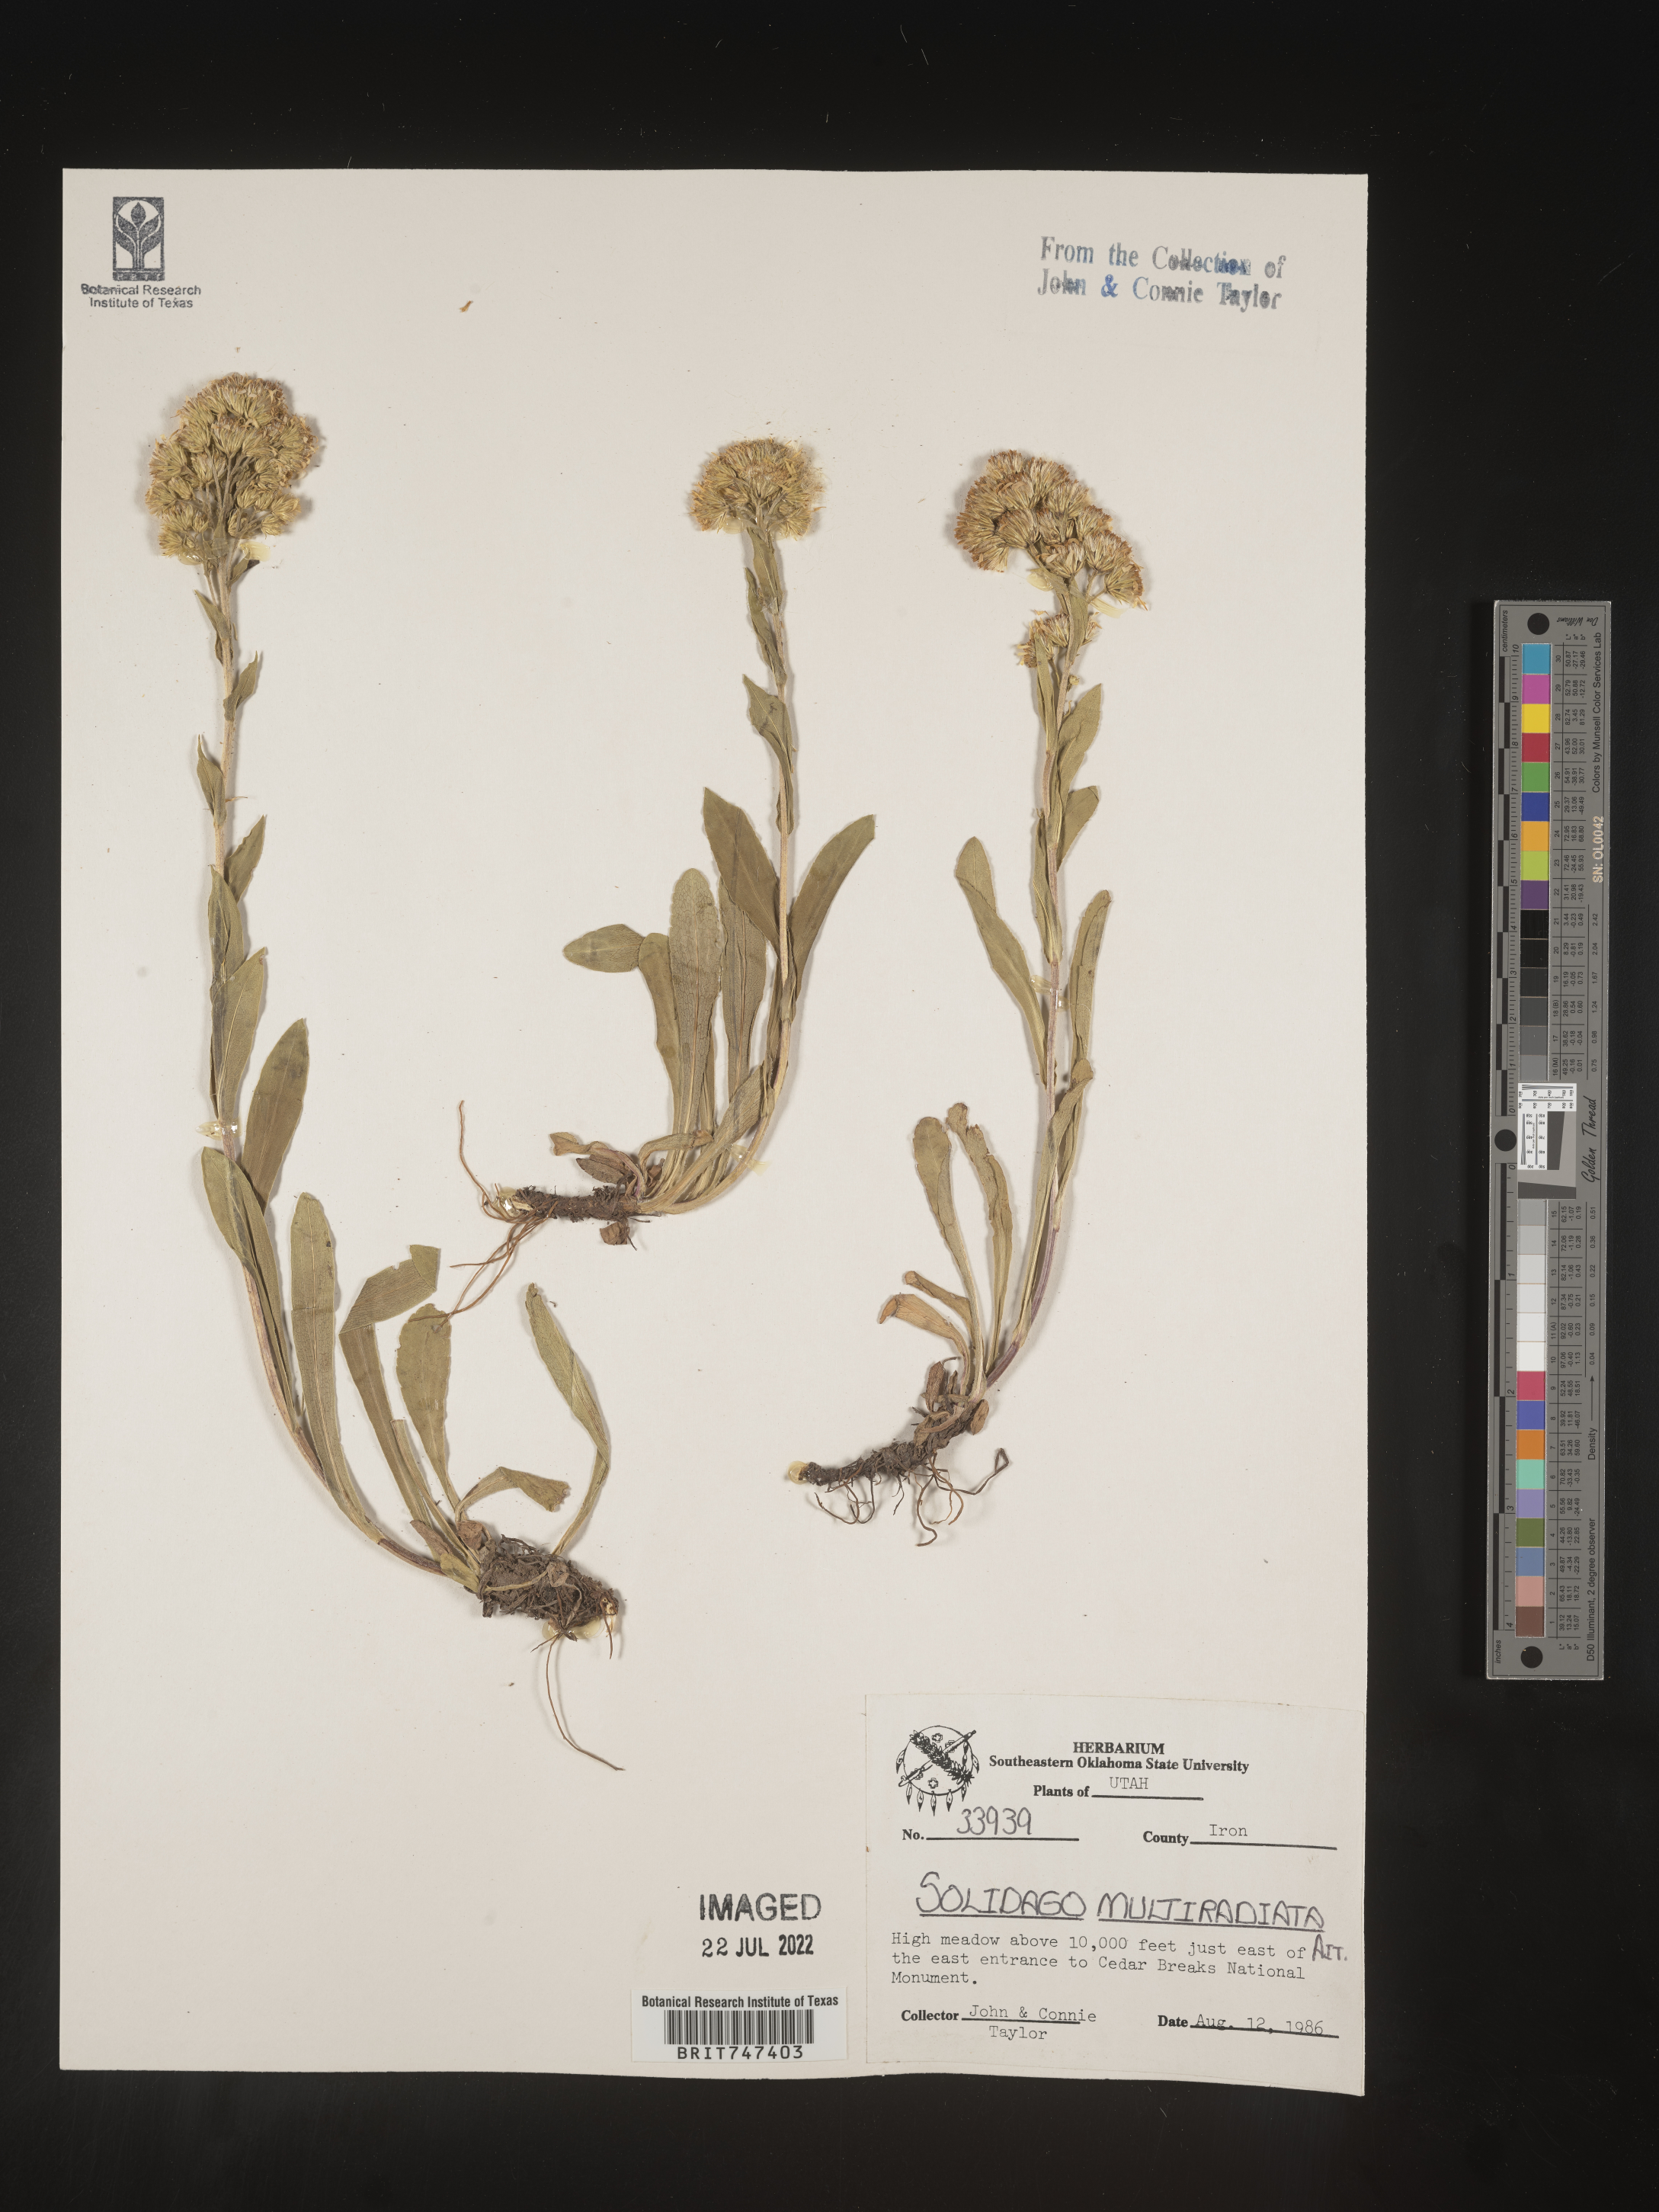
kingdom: Plantae
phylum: Tracheophyta
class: Magnoliopsida
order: Asterales
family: Asteraceae
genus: Solidago
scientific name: Solidago multiradiata
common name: Northern goldenrod
